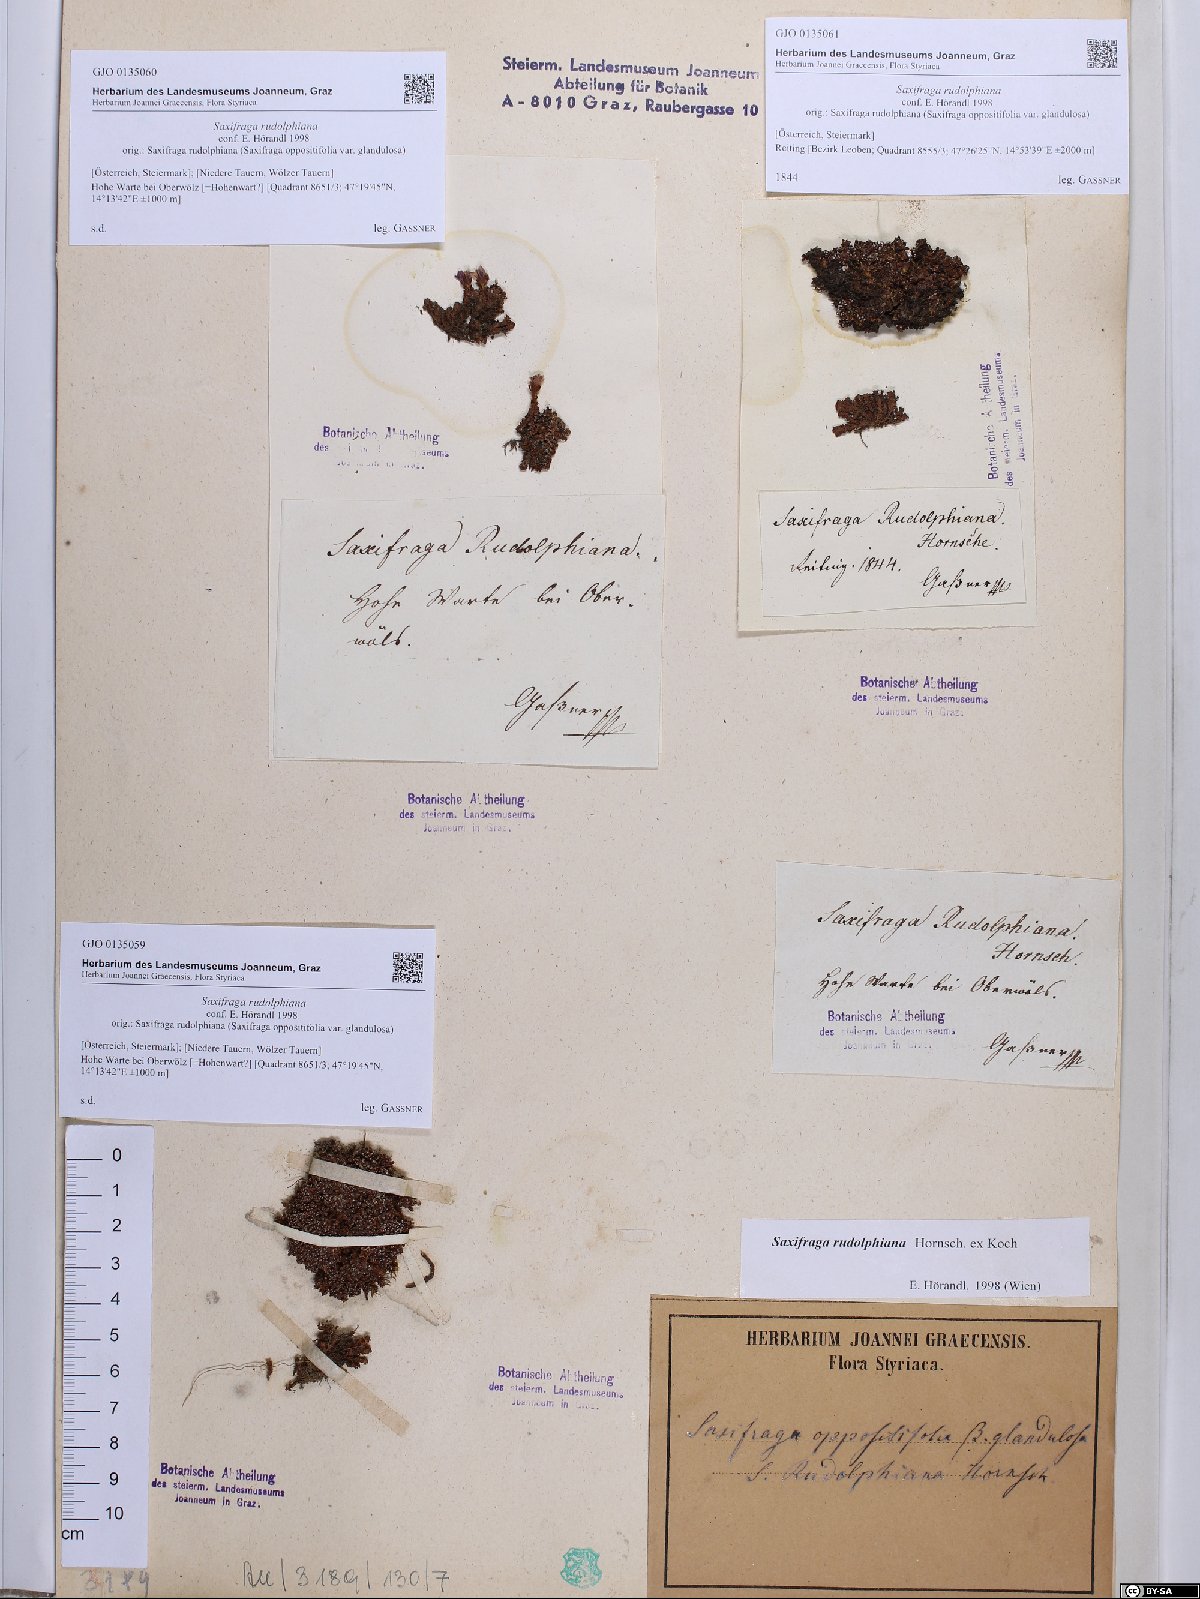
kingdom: Plantae
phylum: Tracheophyta
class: Magnoliopsida
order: Saxifragales
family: Saxifragaceae
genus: Saxifraga
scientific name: Saxifraga oppositifolia
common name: Purple saxifrage
